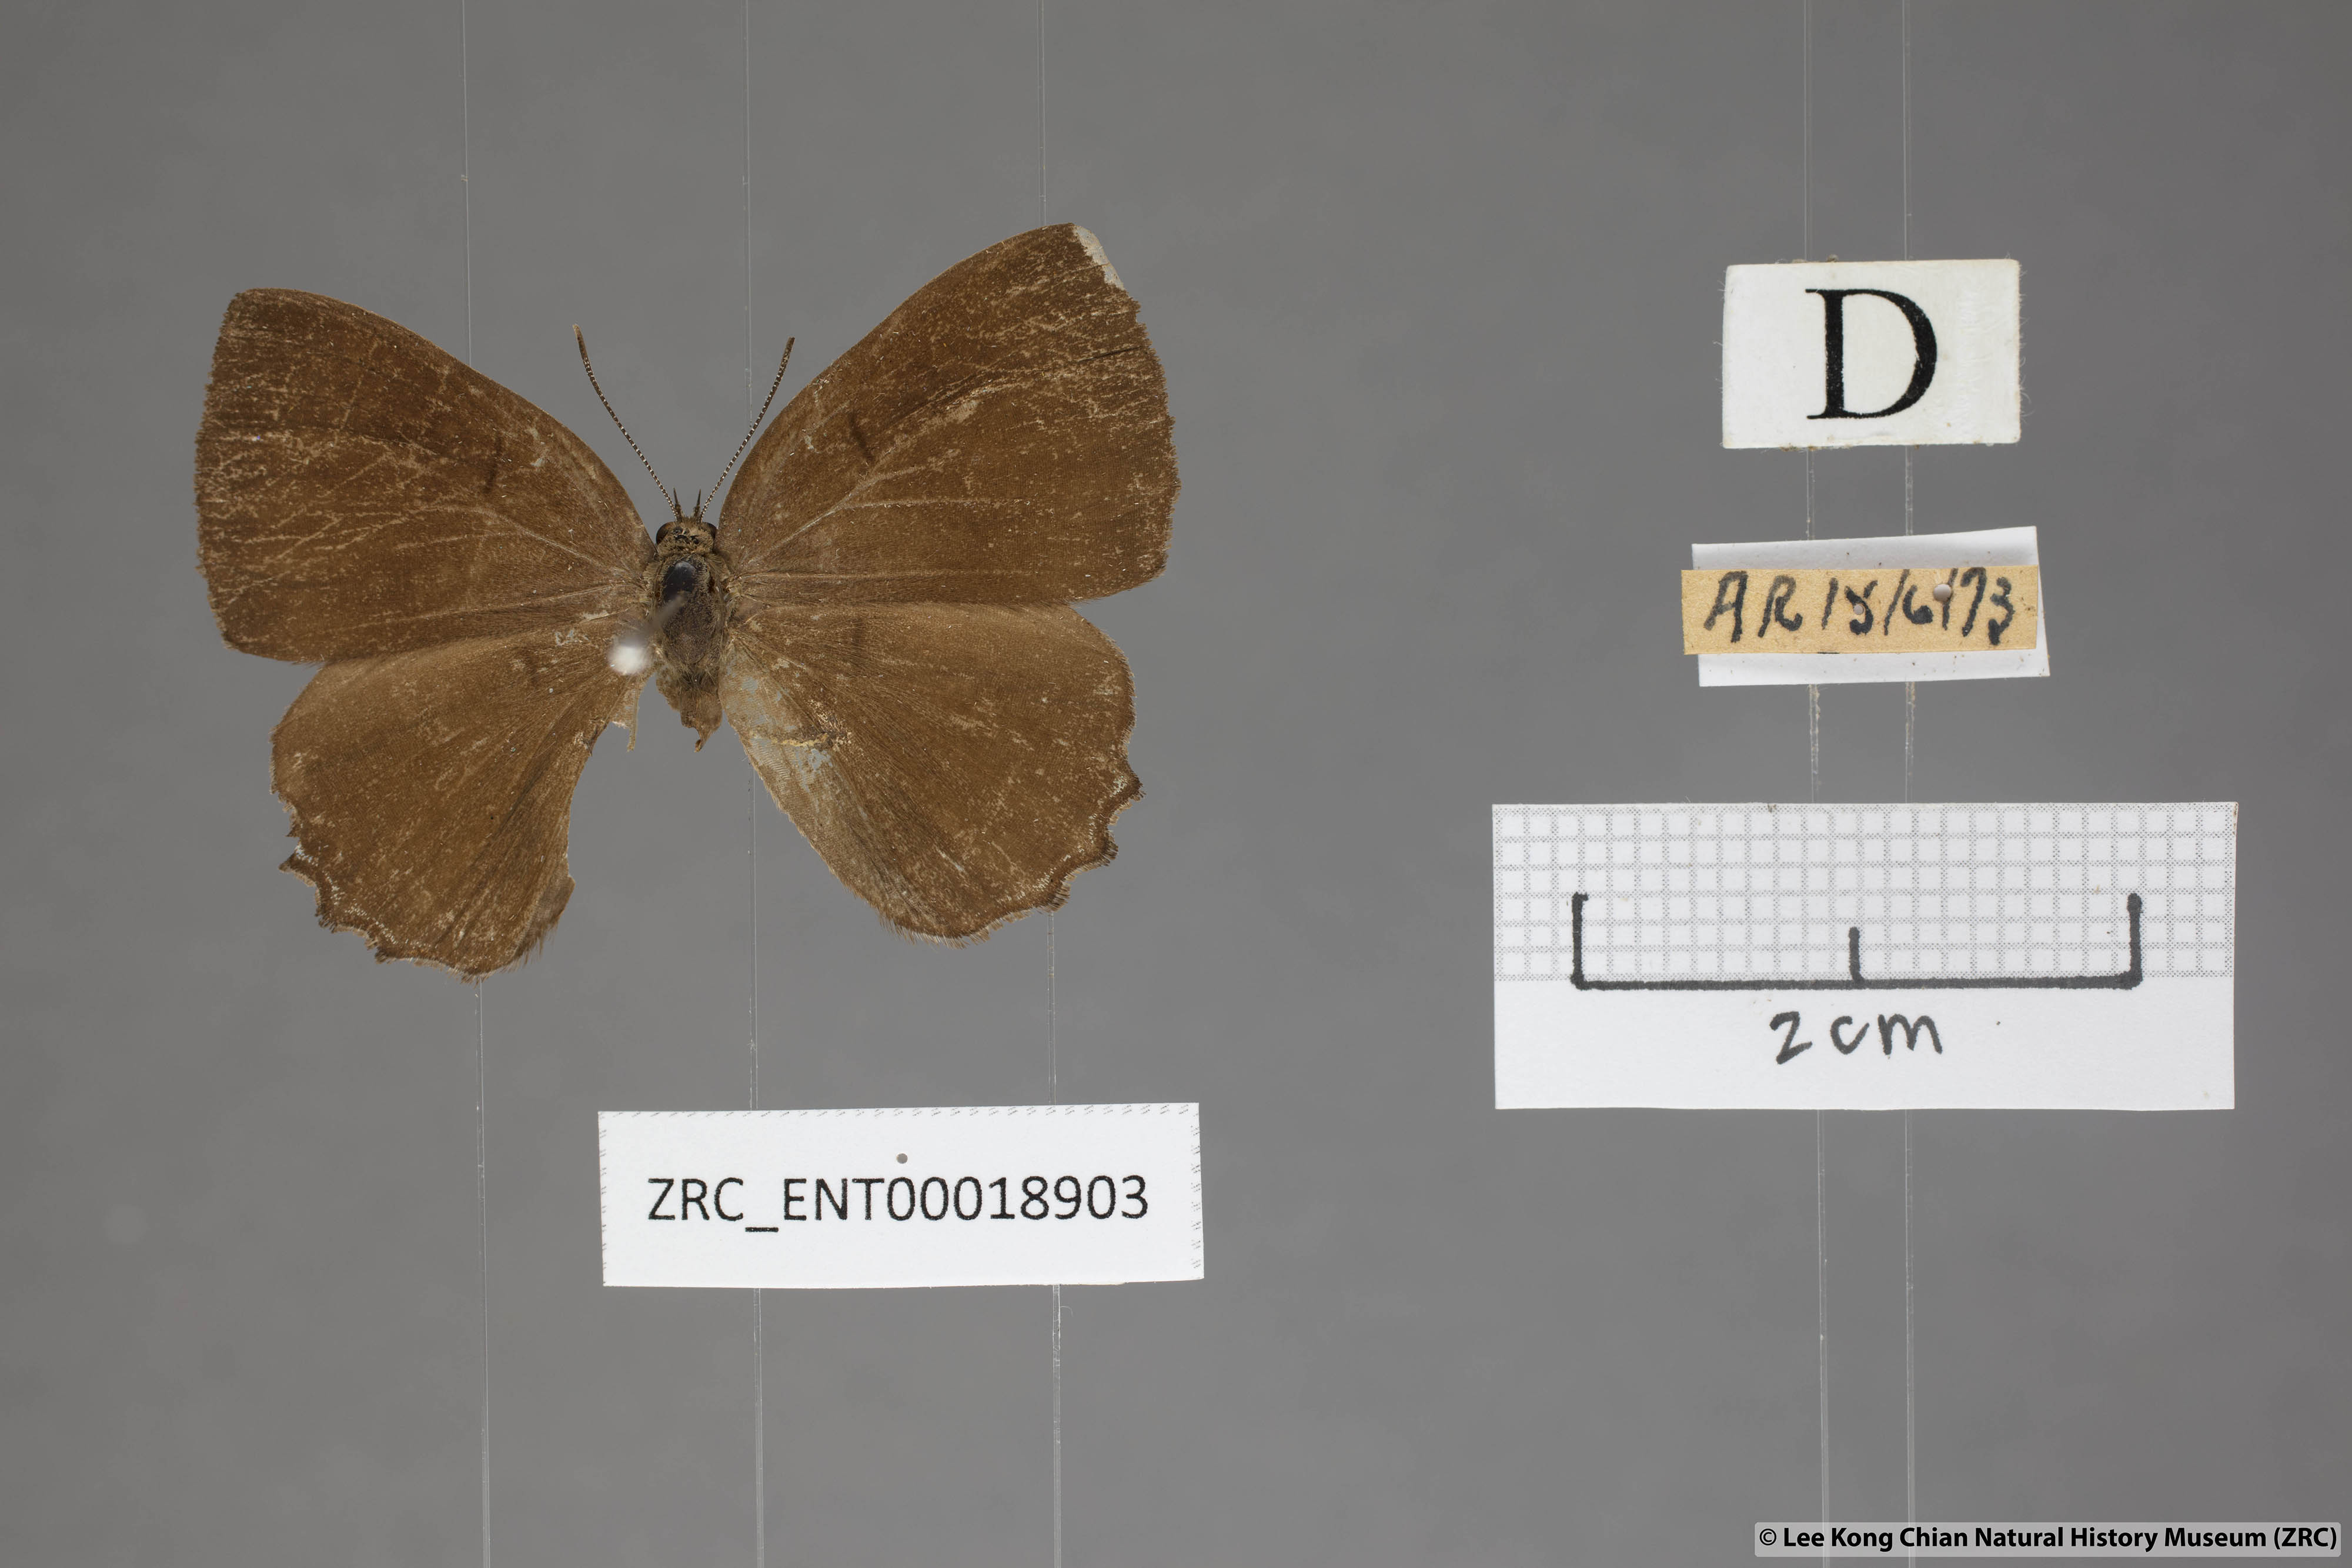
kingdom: Animalia
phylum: Arthropoda
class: Insecta
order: Lepidoptera
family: Lycaenidae
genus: Simiskina
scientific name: Simiskina
